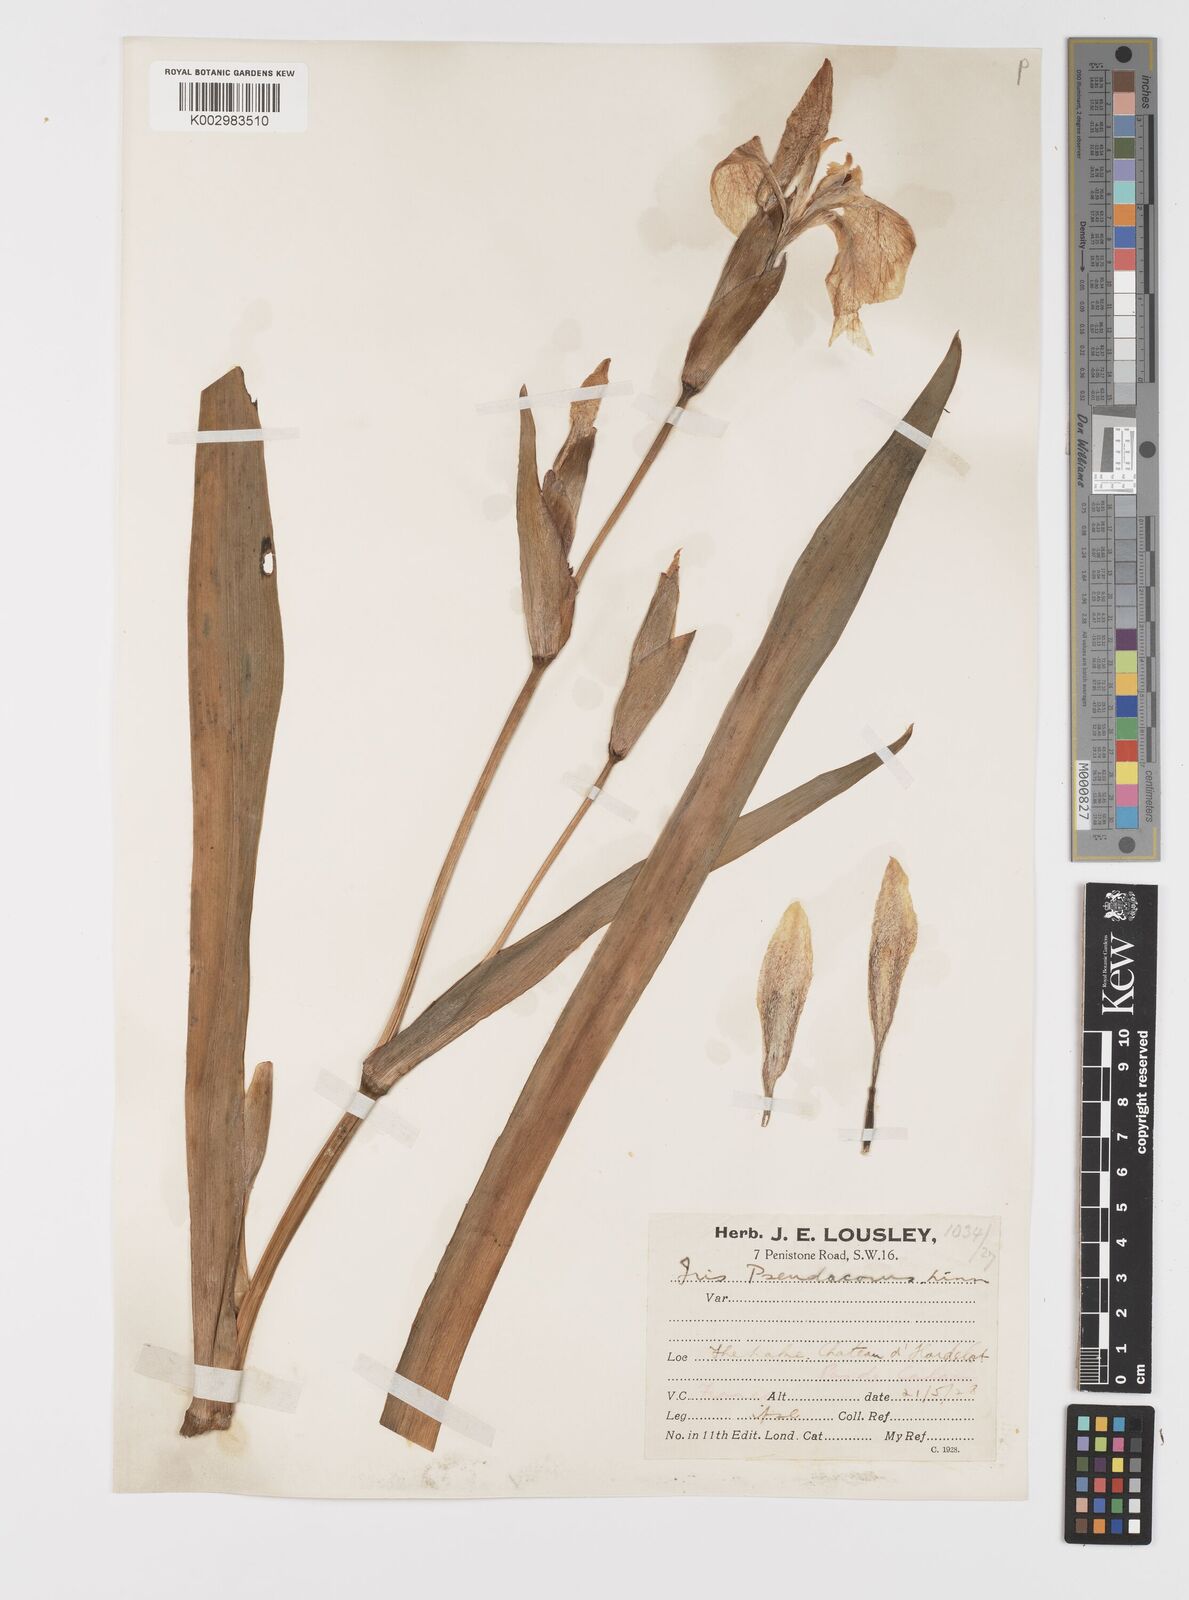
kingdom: Plantae
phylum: Tracheophyta
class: Liliopsida
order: Asparagales
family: Iridaceae
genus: Iris
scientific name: Iris pseudacorus
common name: Yellow flag
